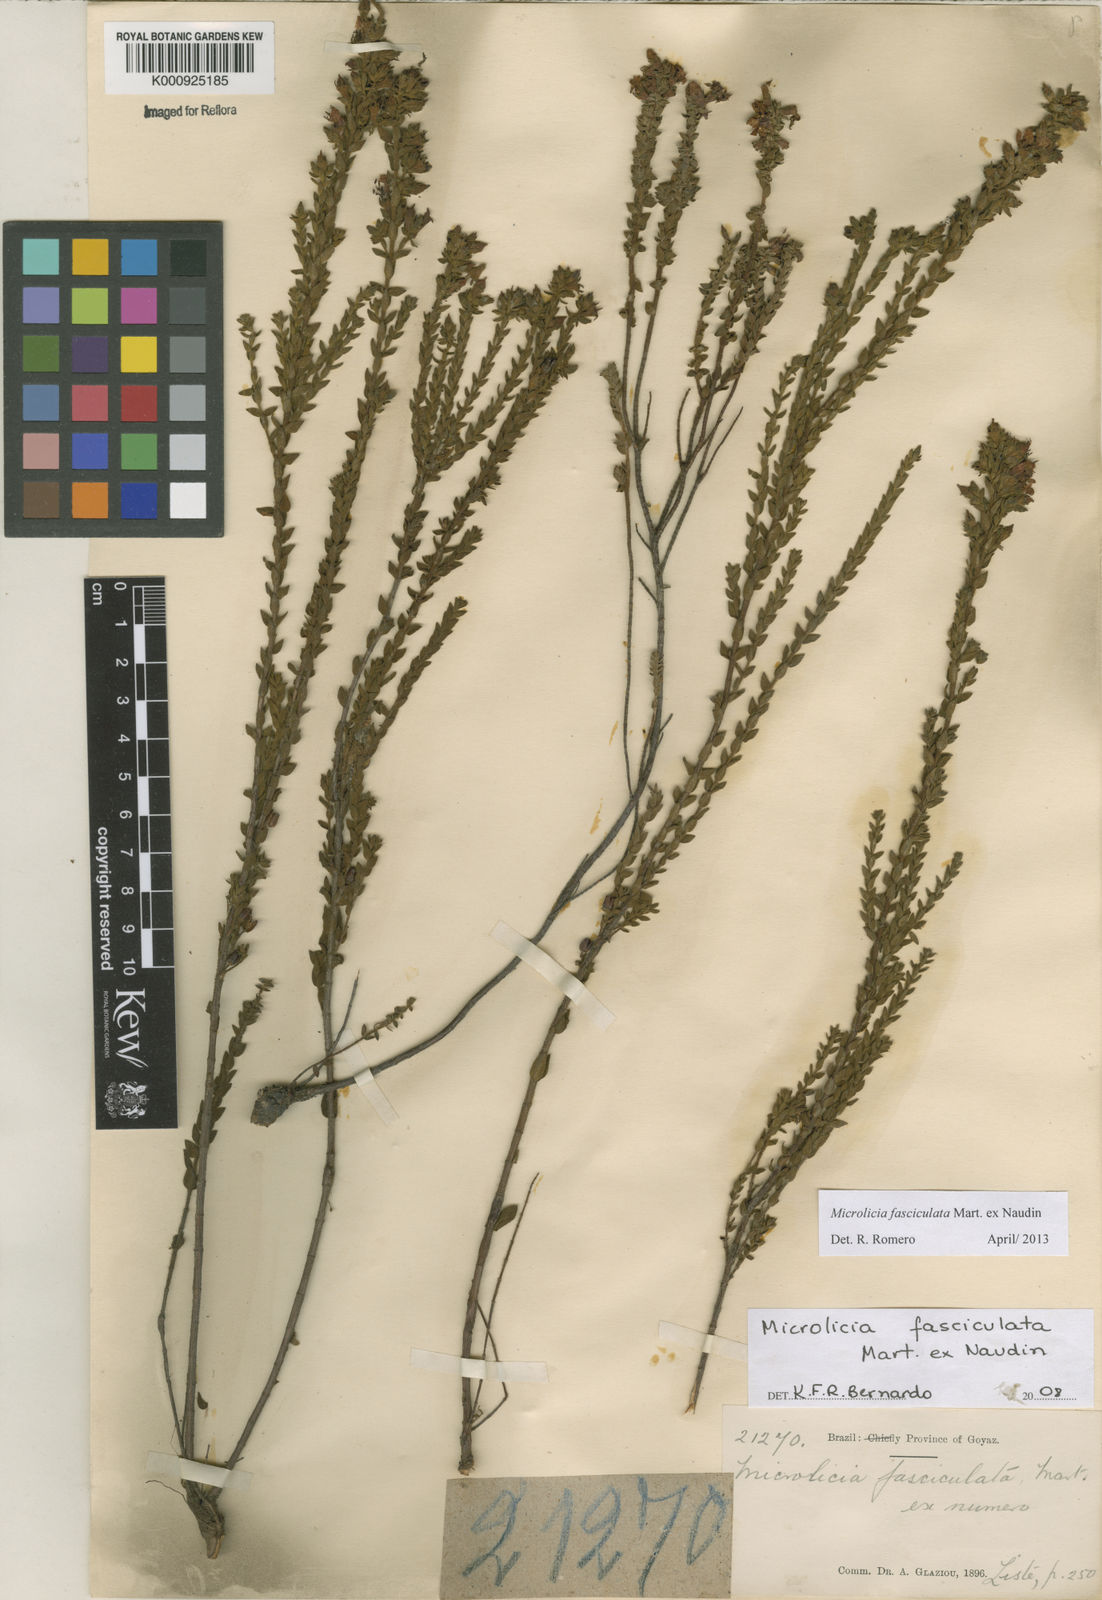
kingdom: Plantae
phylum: Tracheophyta
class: Magnoliopsida
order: Myrtales
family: Melastomataceae
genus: Microlicia
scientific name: Microlicia fasciculata
